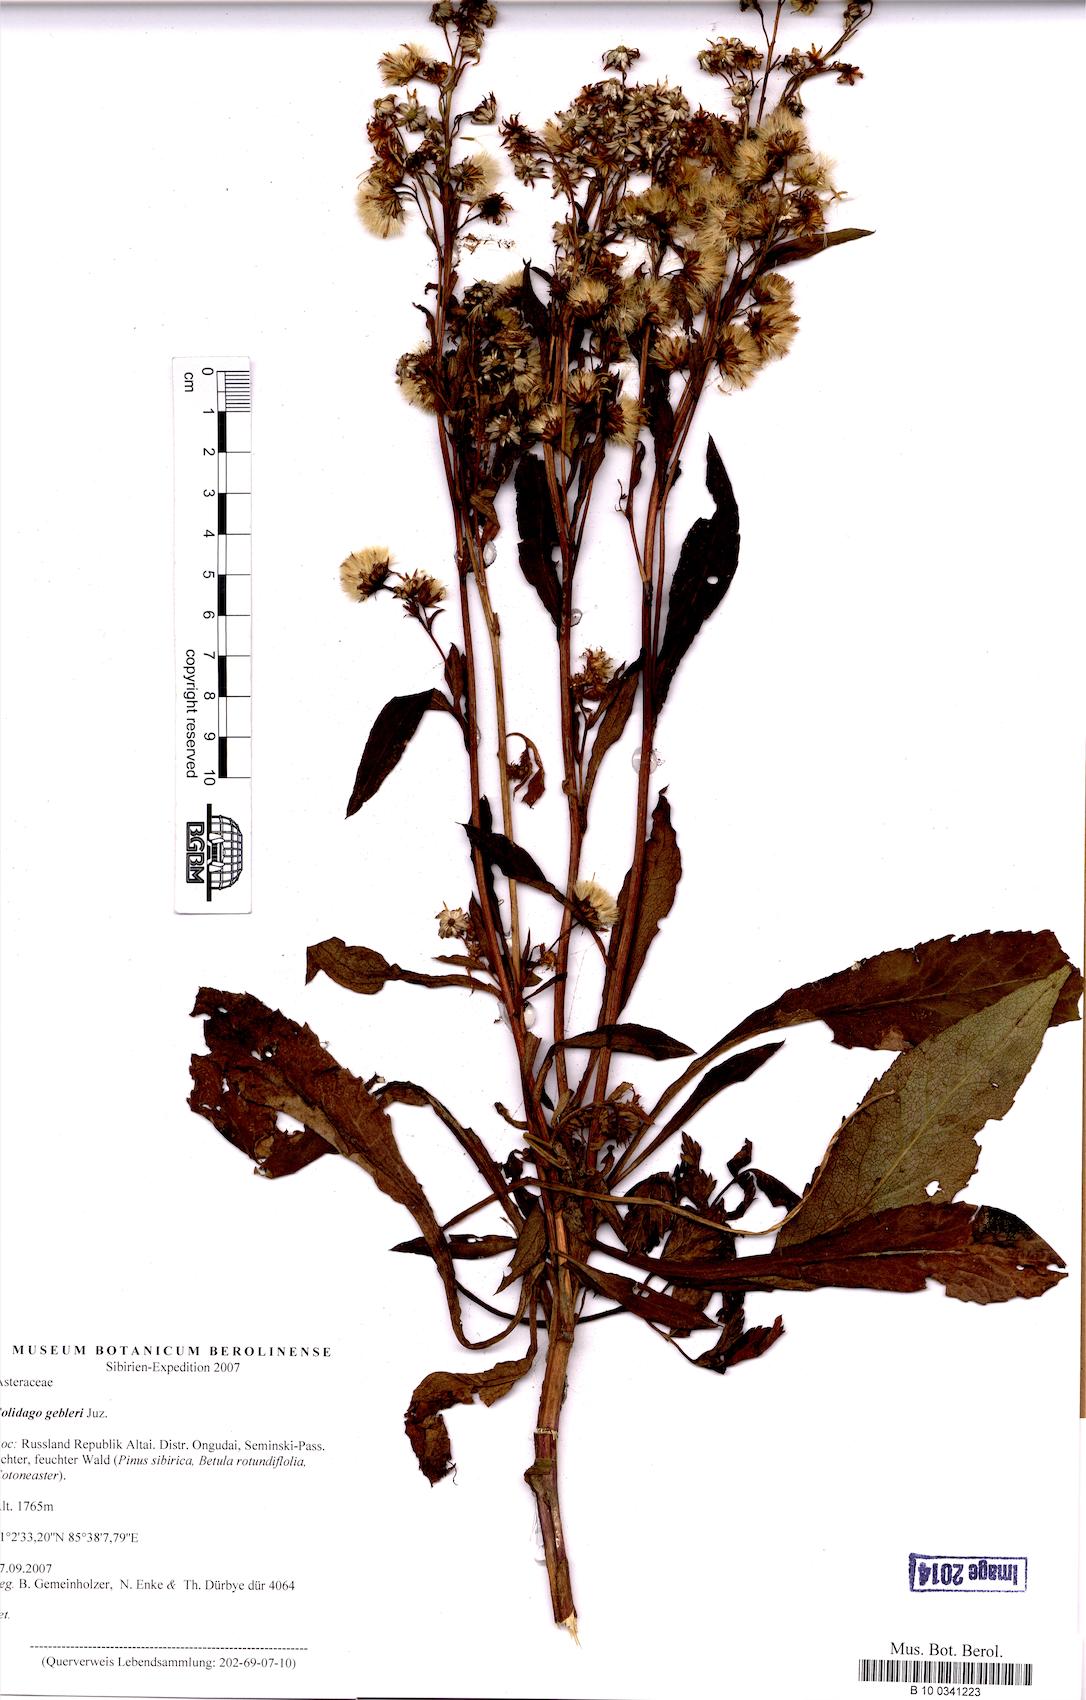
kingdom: Plantae
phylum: Tracheophyta
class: Magnoliopsida
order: Asterales
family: Asteraceae
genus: Solidago
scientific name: Solidago dahurica
